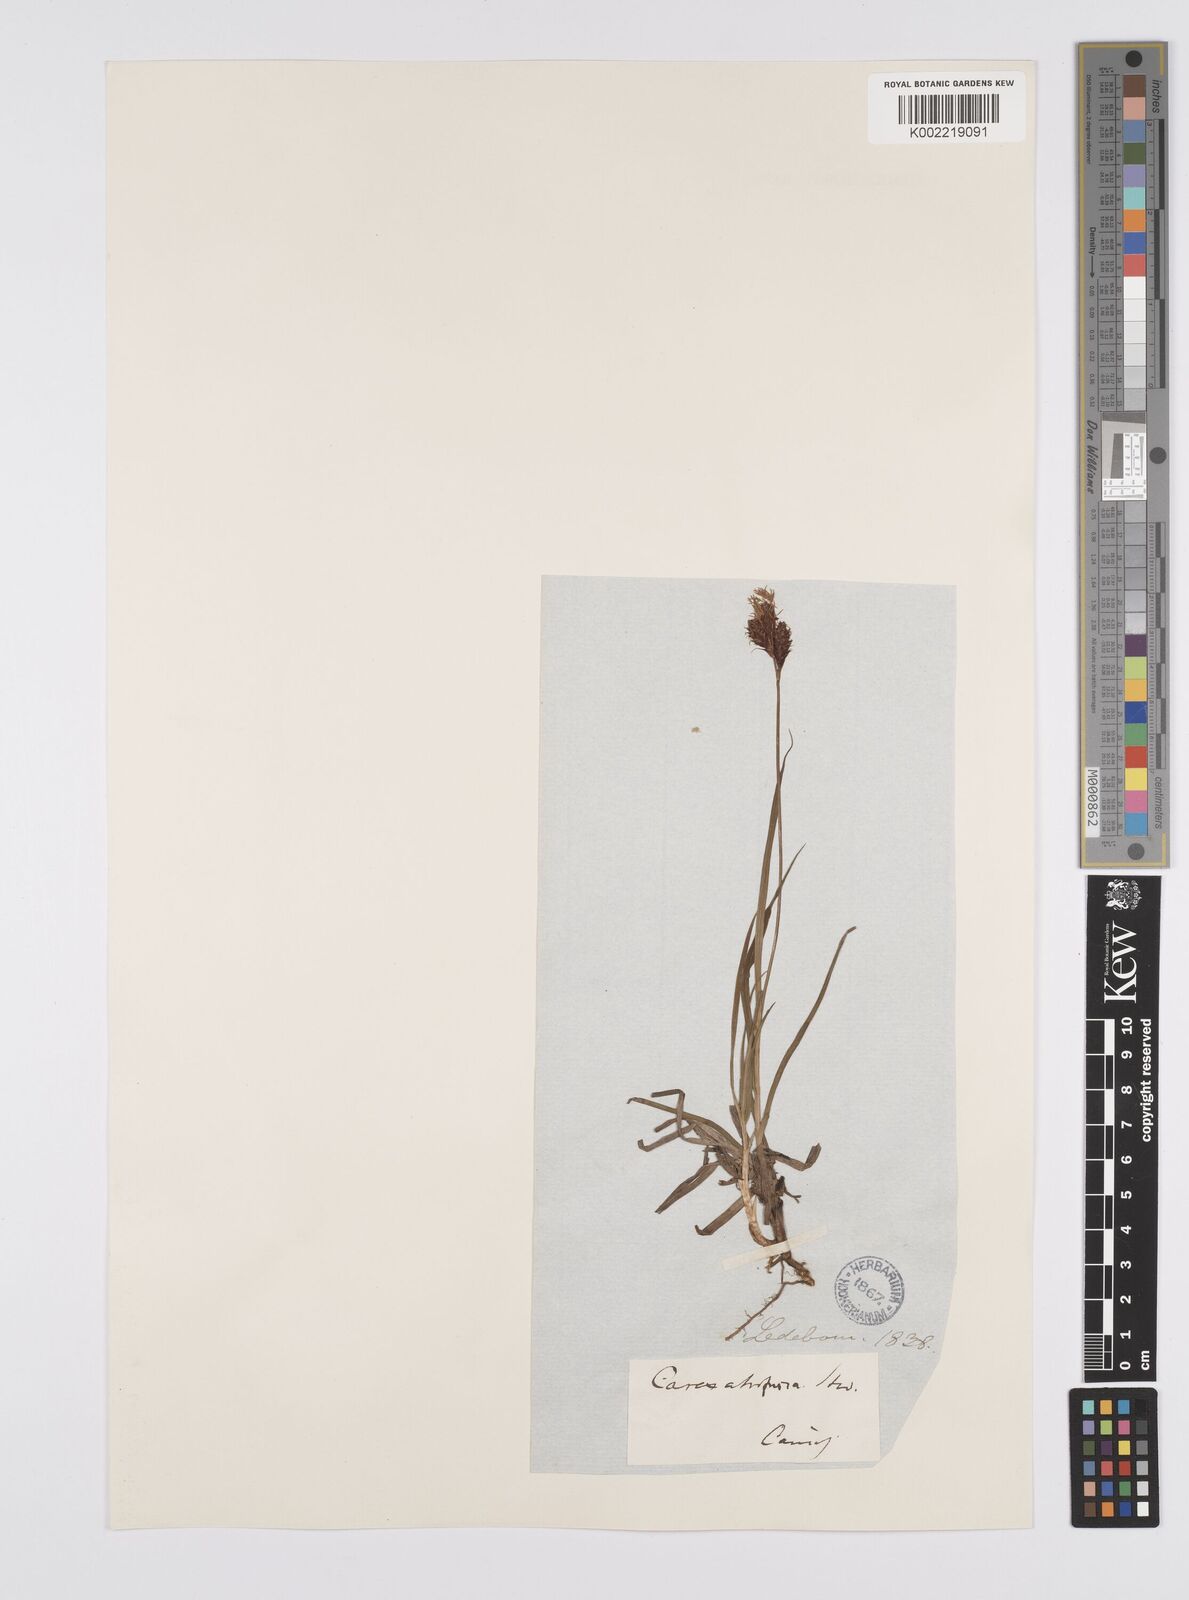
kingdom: Plantae
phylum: Tracheophyta
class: Liliopsida
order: Poales
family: Cyperaceae
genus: Carex
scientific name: Carex aterrima
